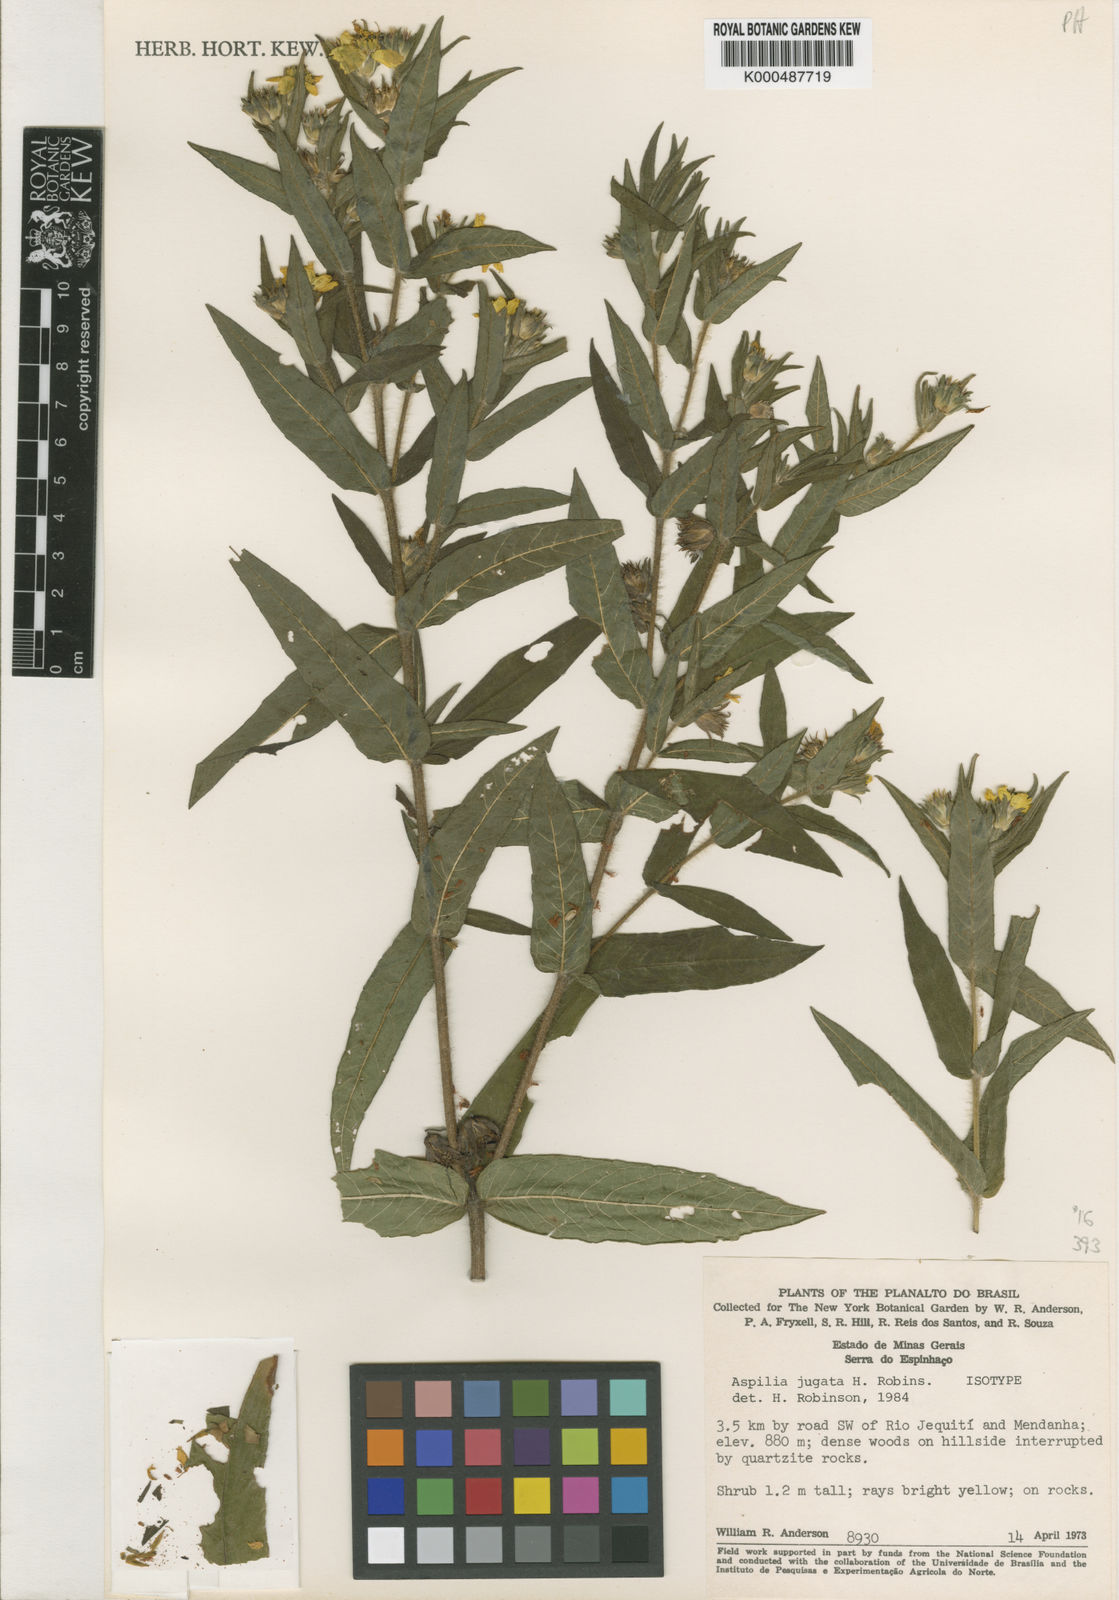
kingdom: Plantae
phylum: Tracheophyta
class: Magnoliopsida
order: Asterales
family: Asteraceae
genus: Wedelia
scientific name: Wedelia jugata
